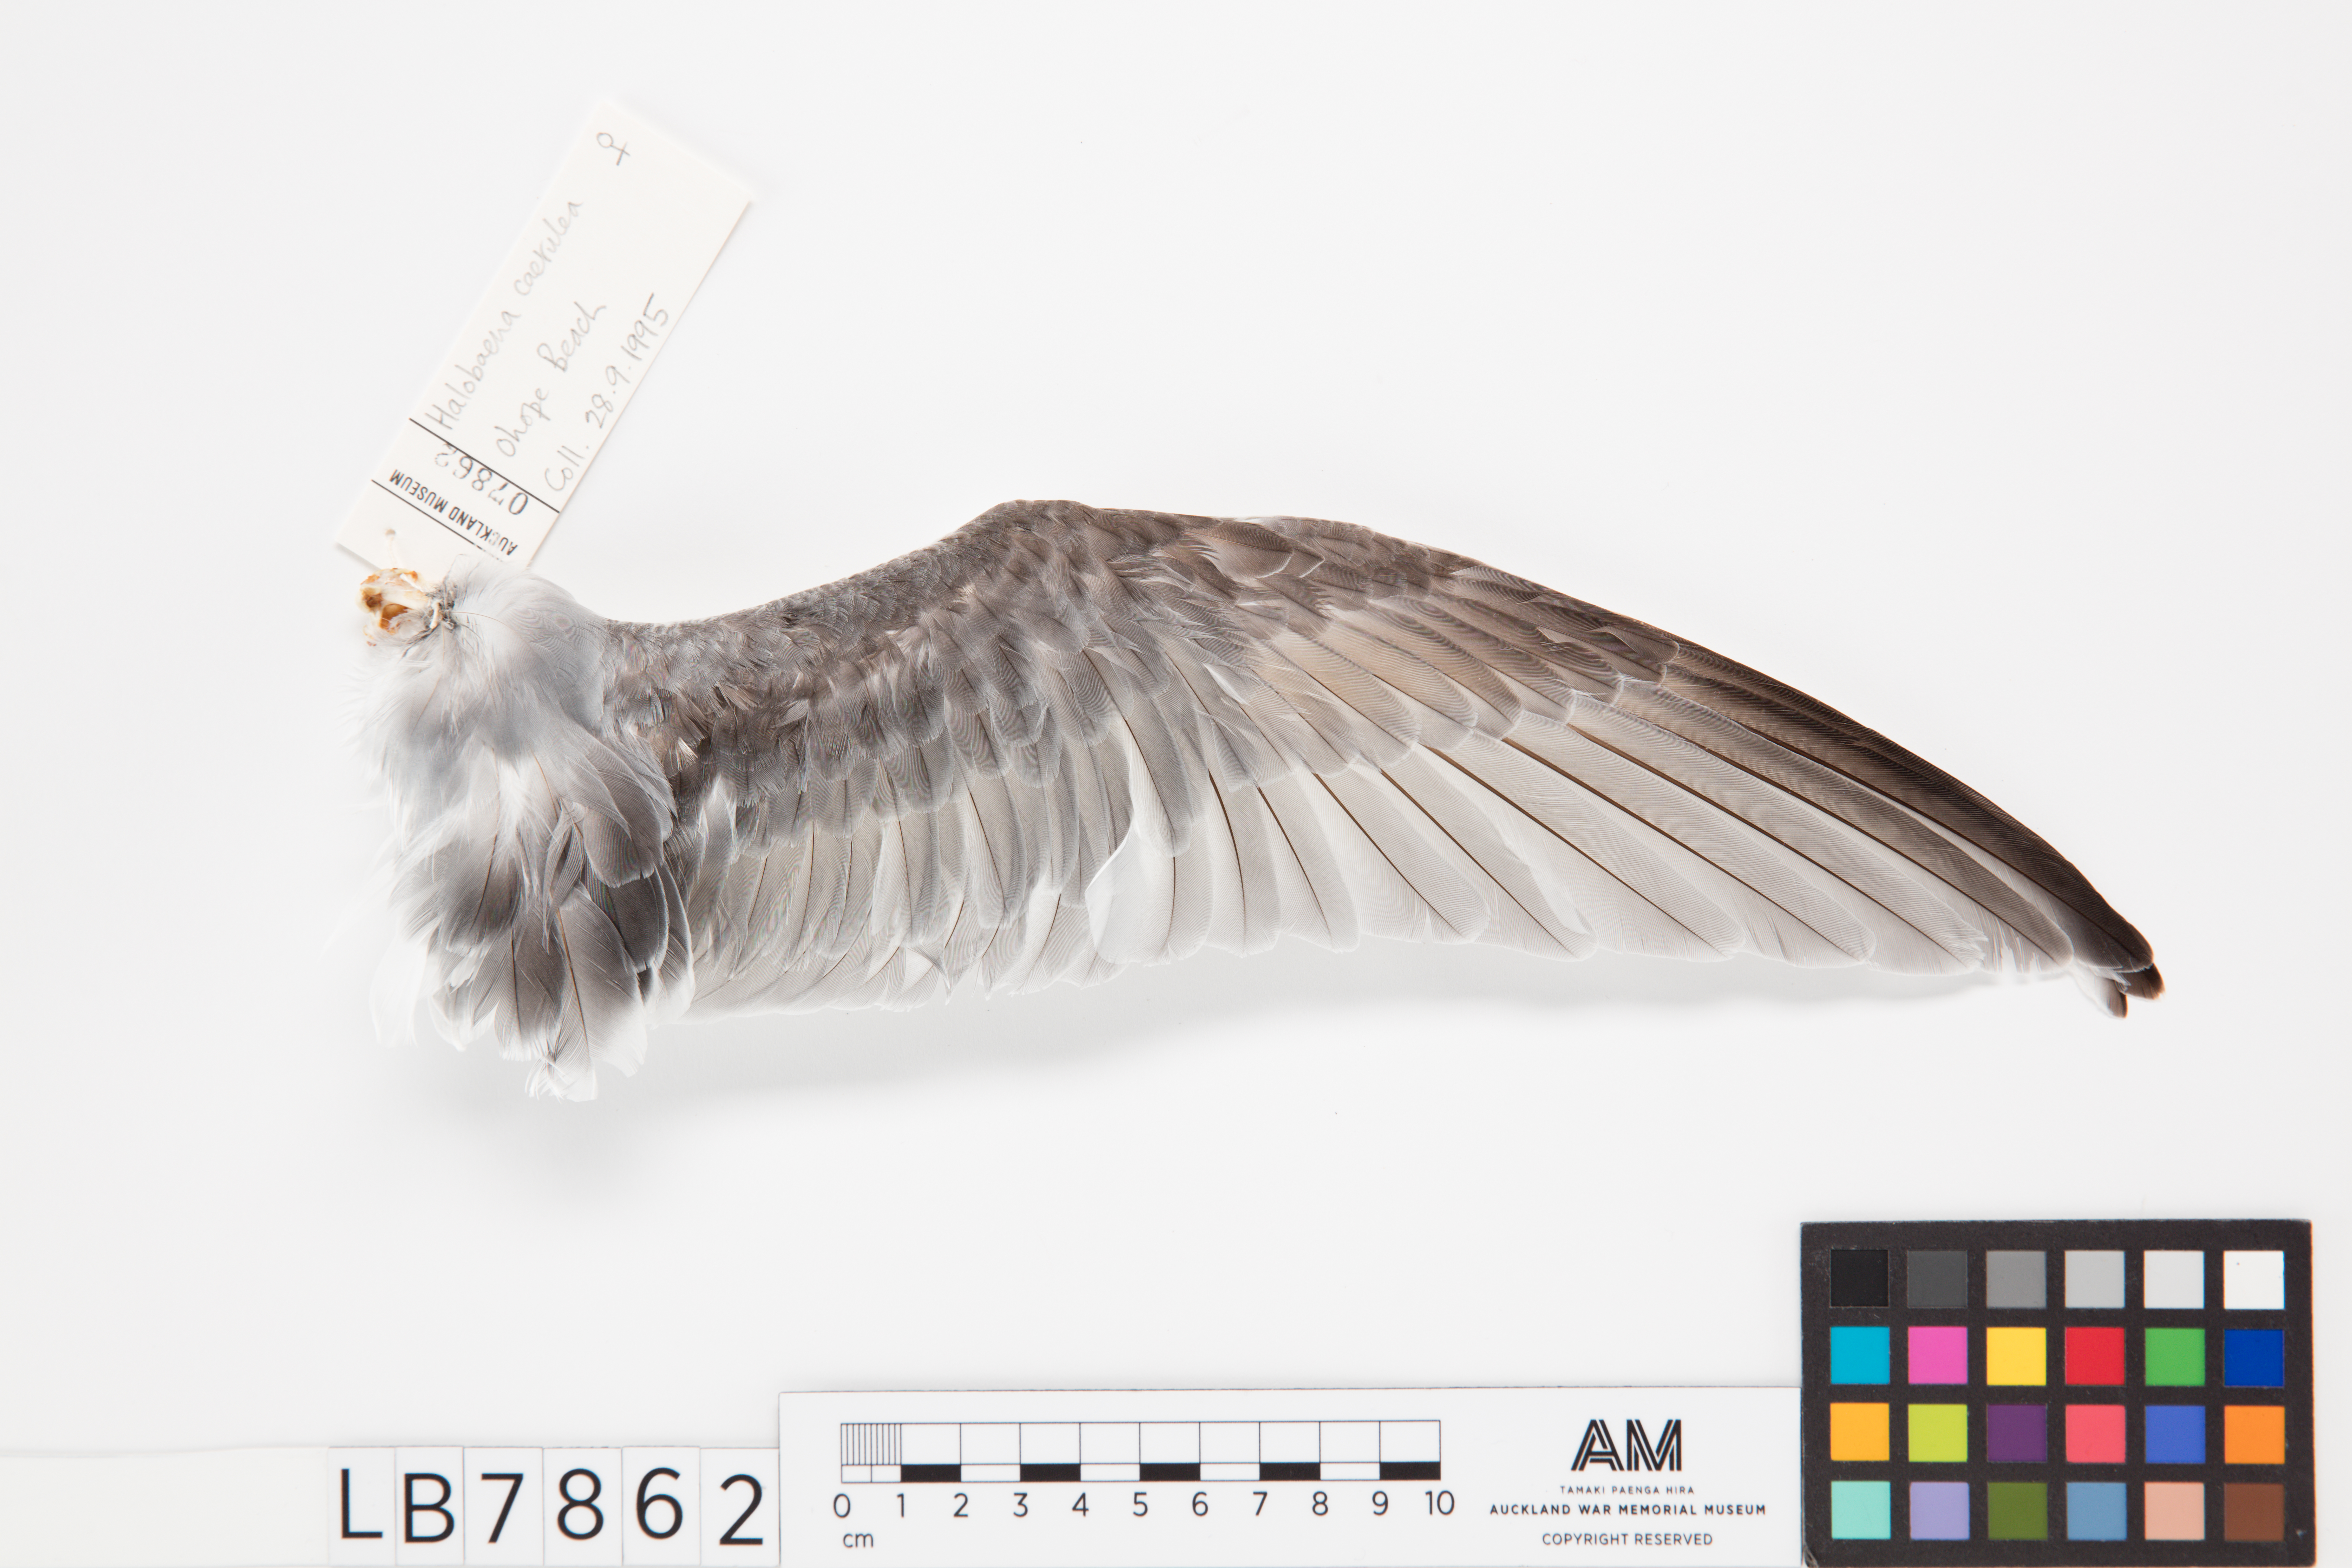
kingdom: Animalia
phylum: Chordata
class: Aves
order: Procellariiformes
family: Procellariidae
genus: Halobaena
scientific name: Halobaena caerulea
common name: Blue petrel
